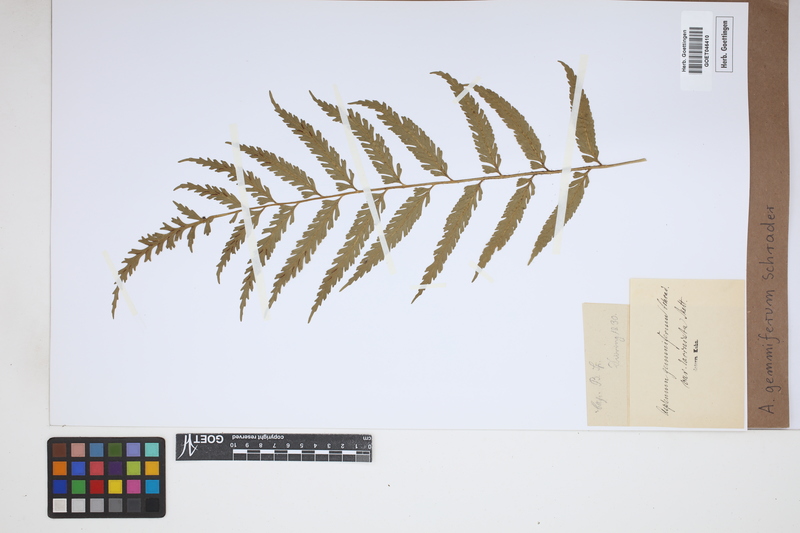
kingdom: Plantae
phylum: Tracheophyta
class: Polypodiopsida
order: Polypodiales
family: Aspleniaceae
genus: Asplenium
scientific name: Asplenium gemmiferum
